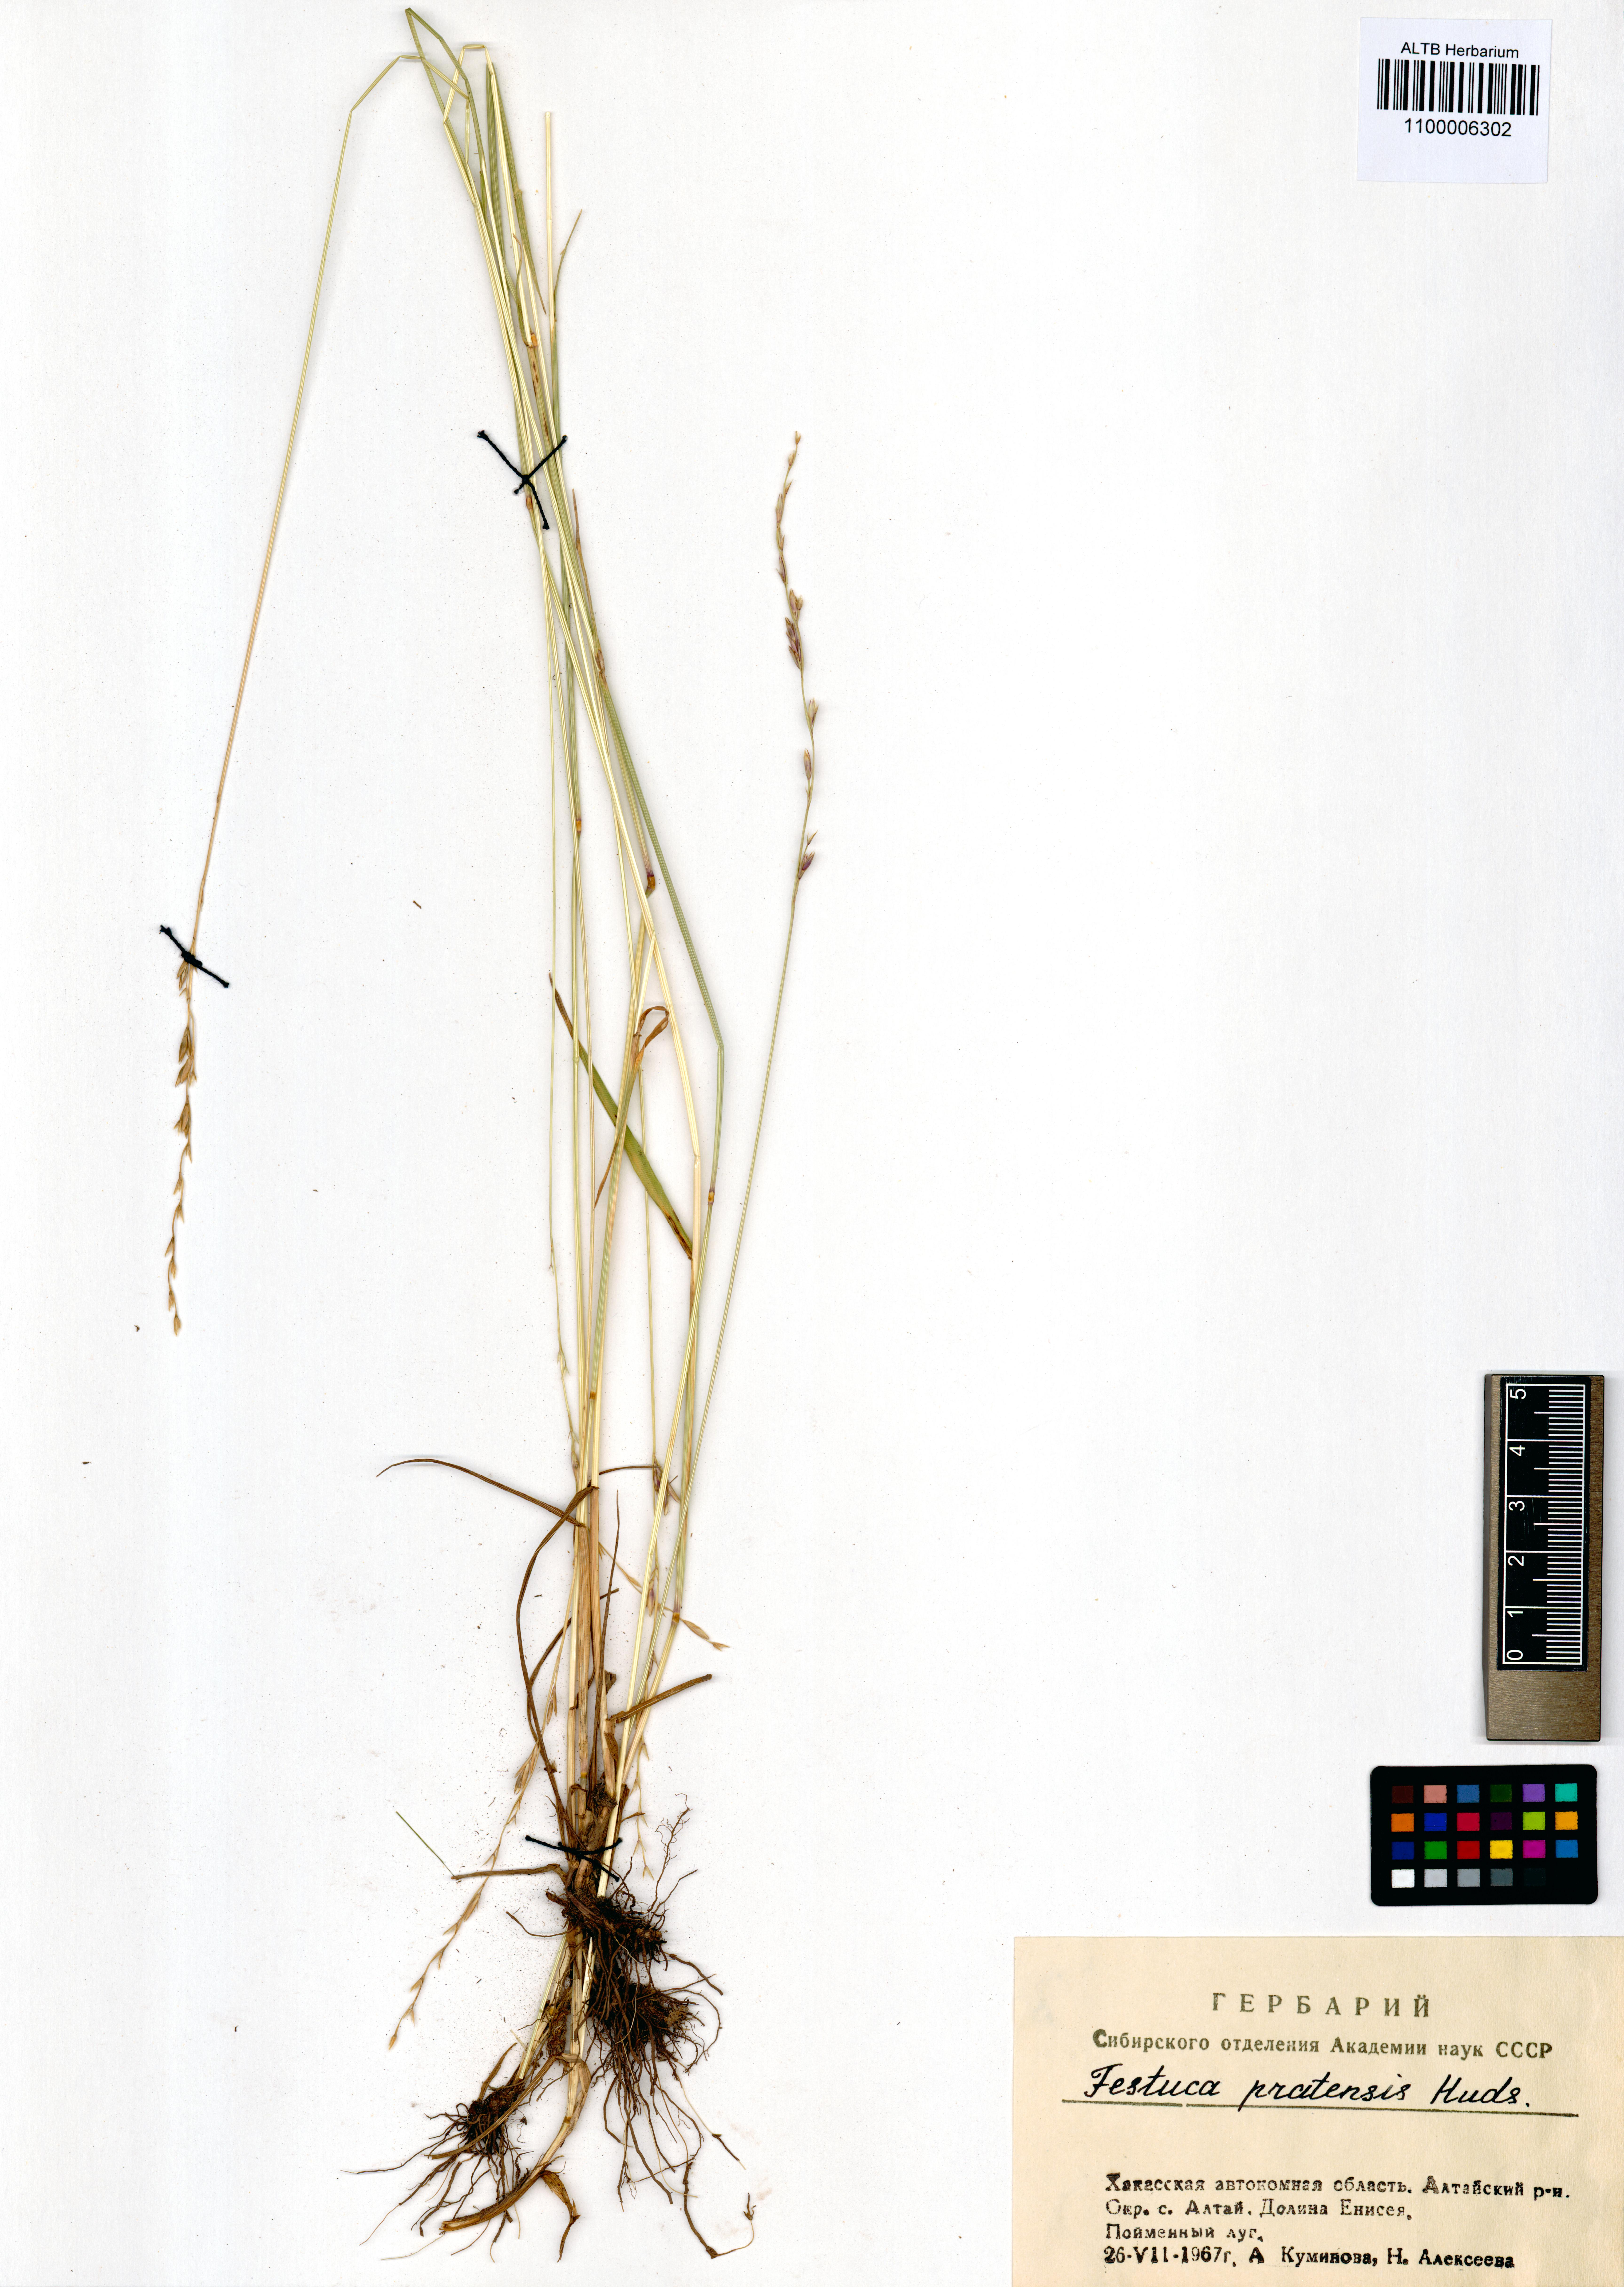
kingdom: Plantae
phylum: Tracheophyta
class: Liliopsida
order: Poales
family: Poaceae
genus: Lolium
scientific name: Lolium pratense
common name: Dover grass
